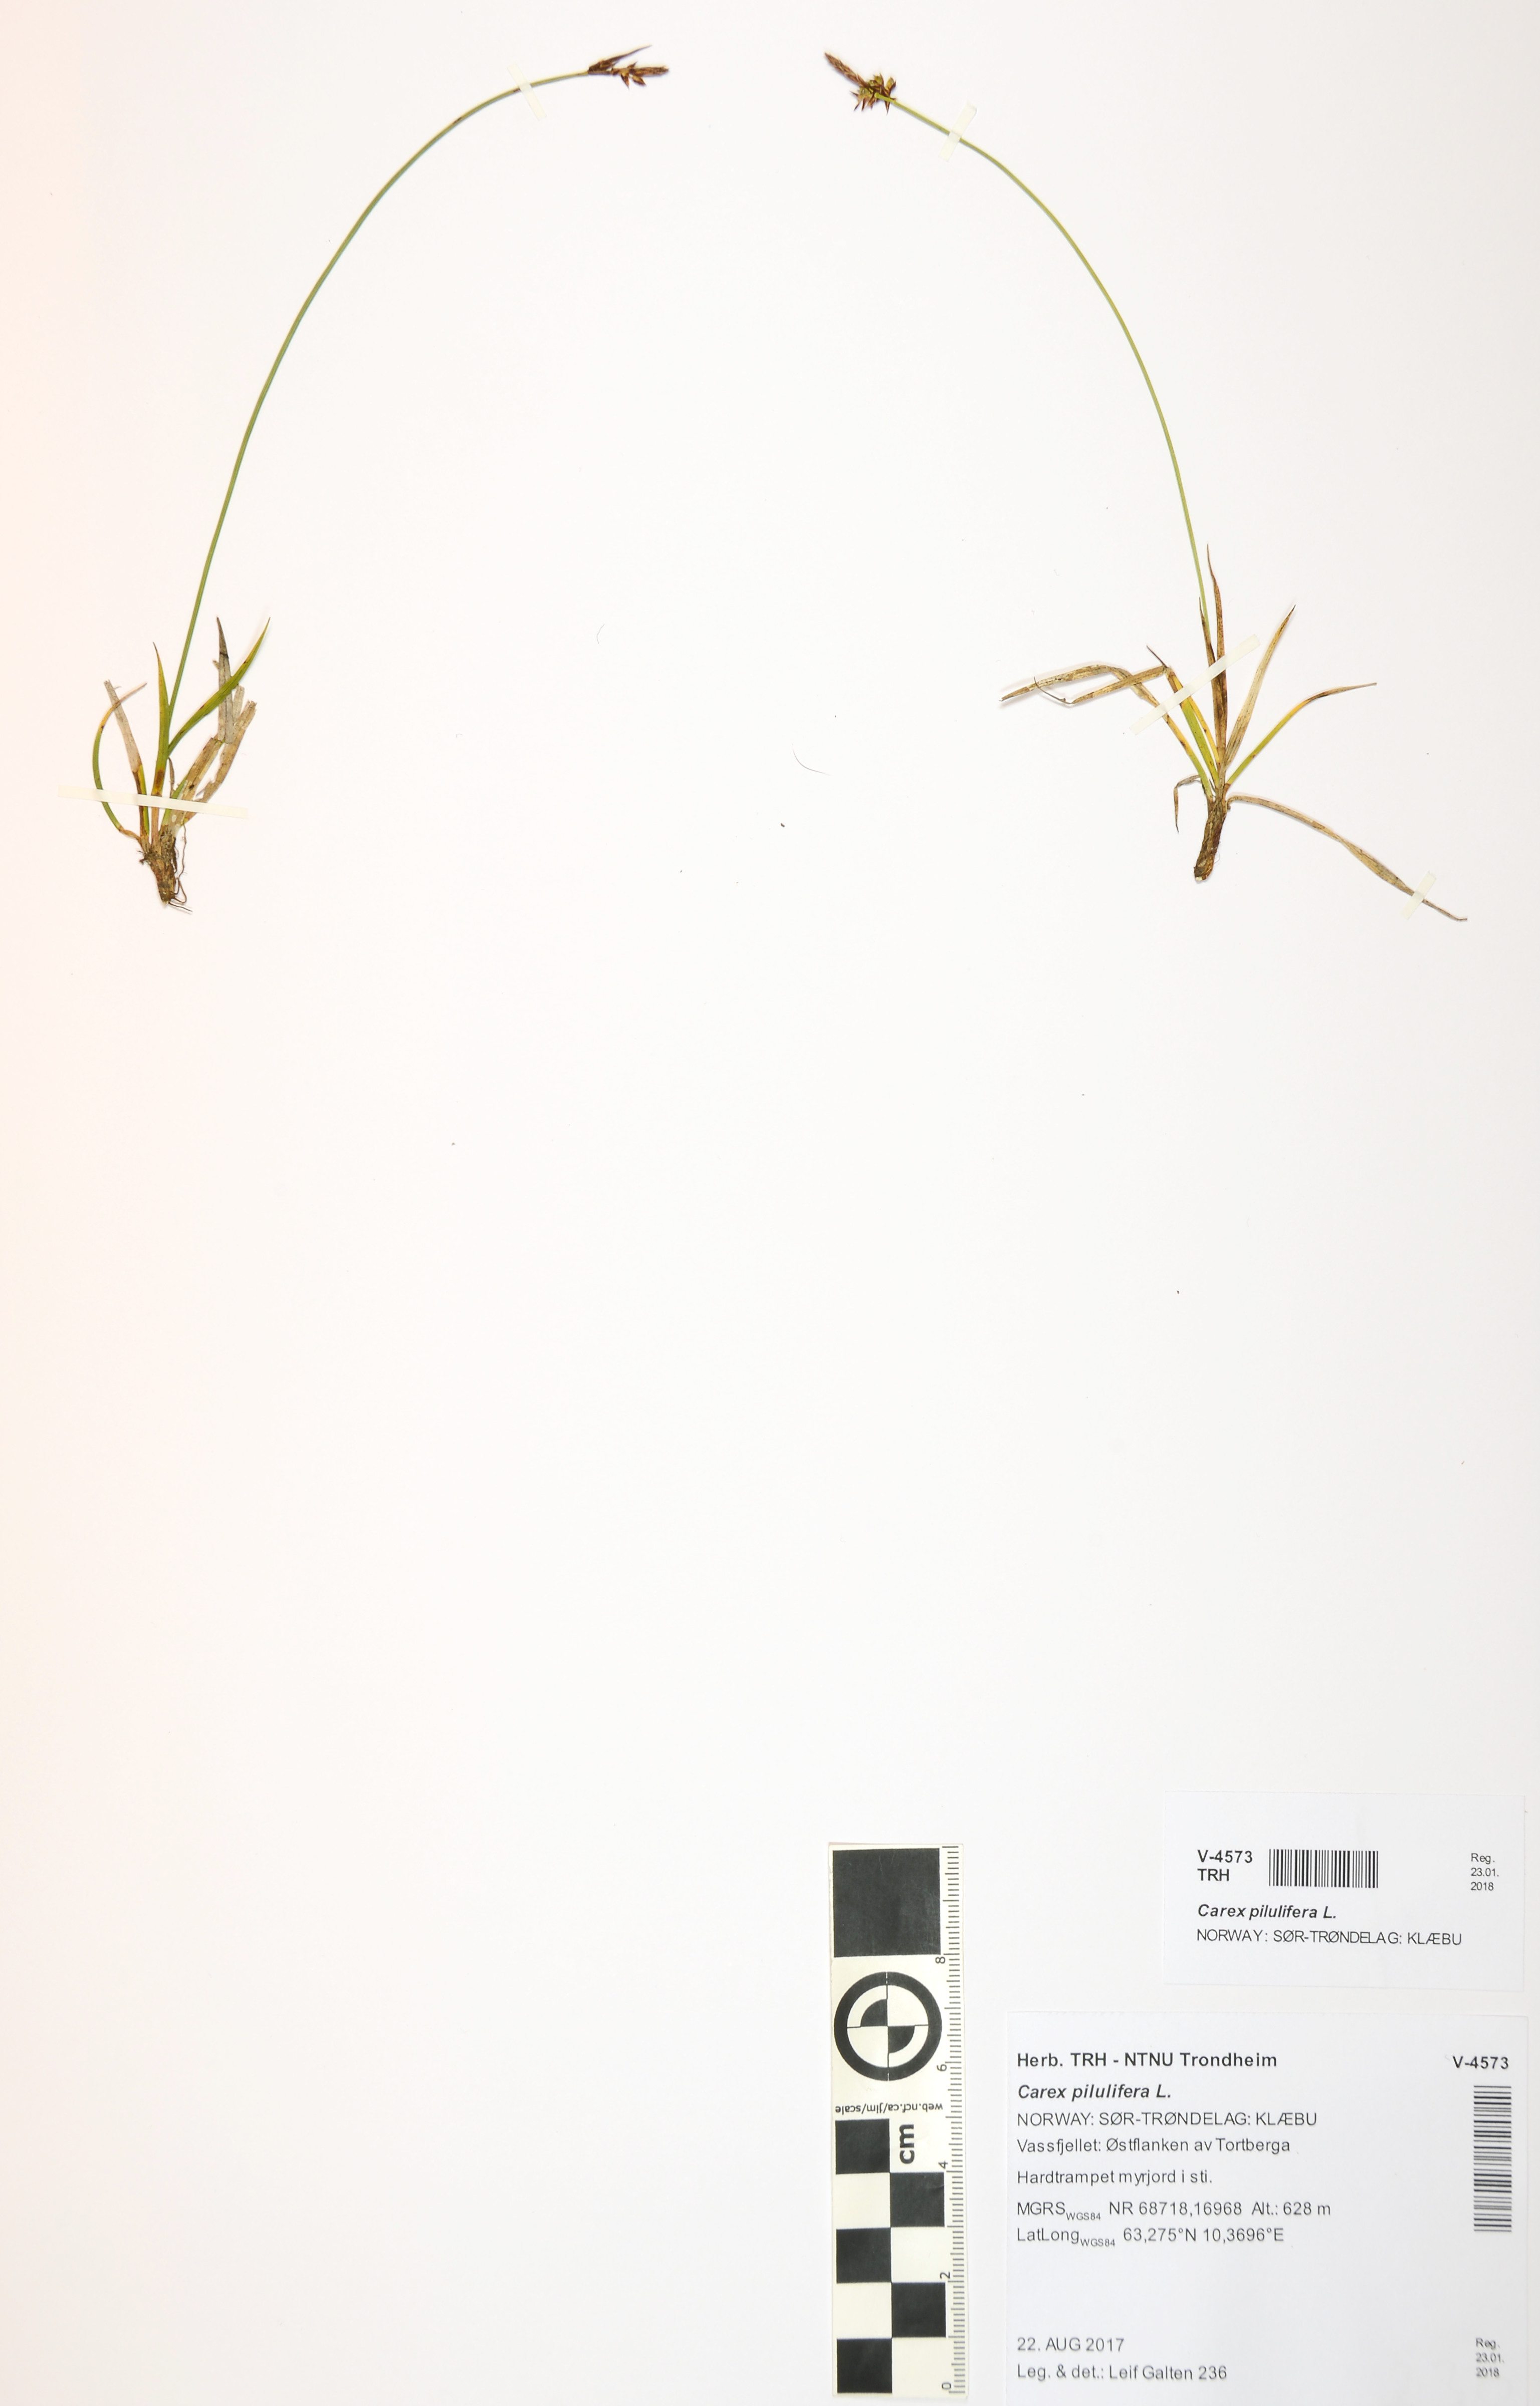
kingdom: Plantae
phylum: Tracheophyta
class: Liliopsida
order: Poales
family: Cyperaceae
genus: Carex
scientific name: Carex pilulifera
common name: Pill sedge
